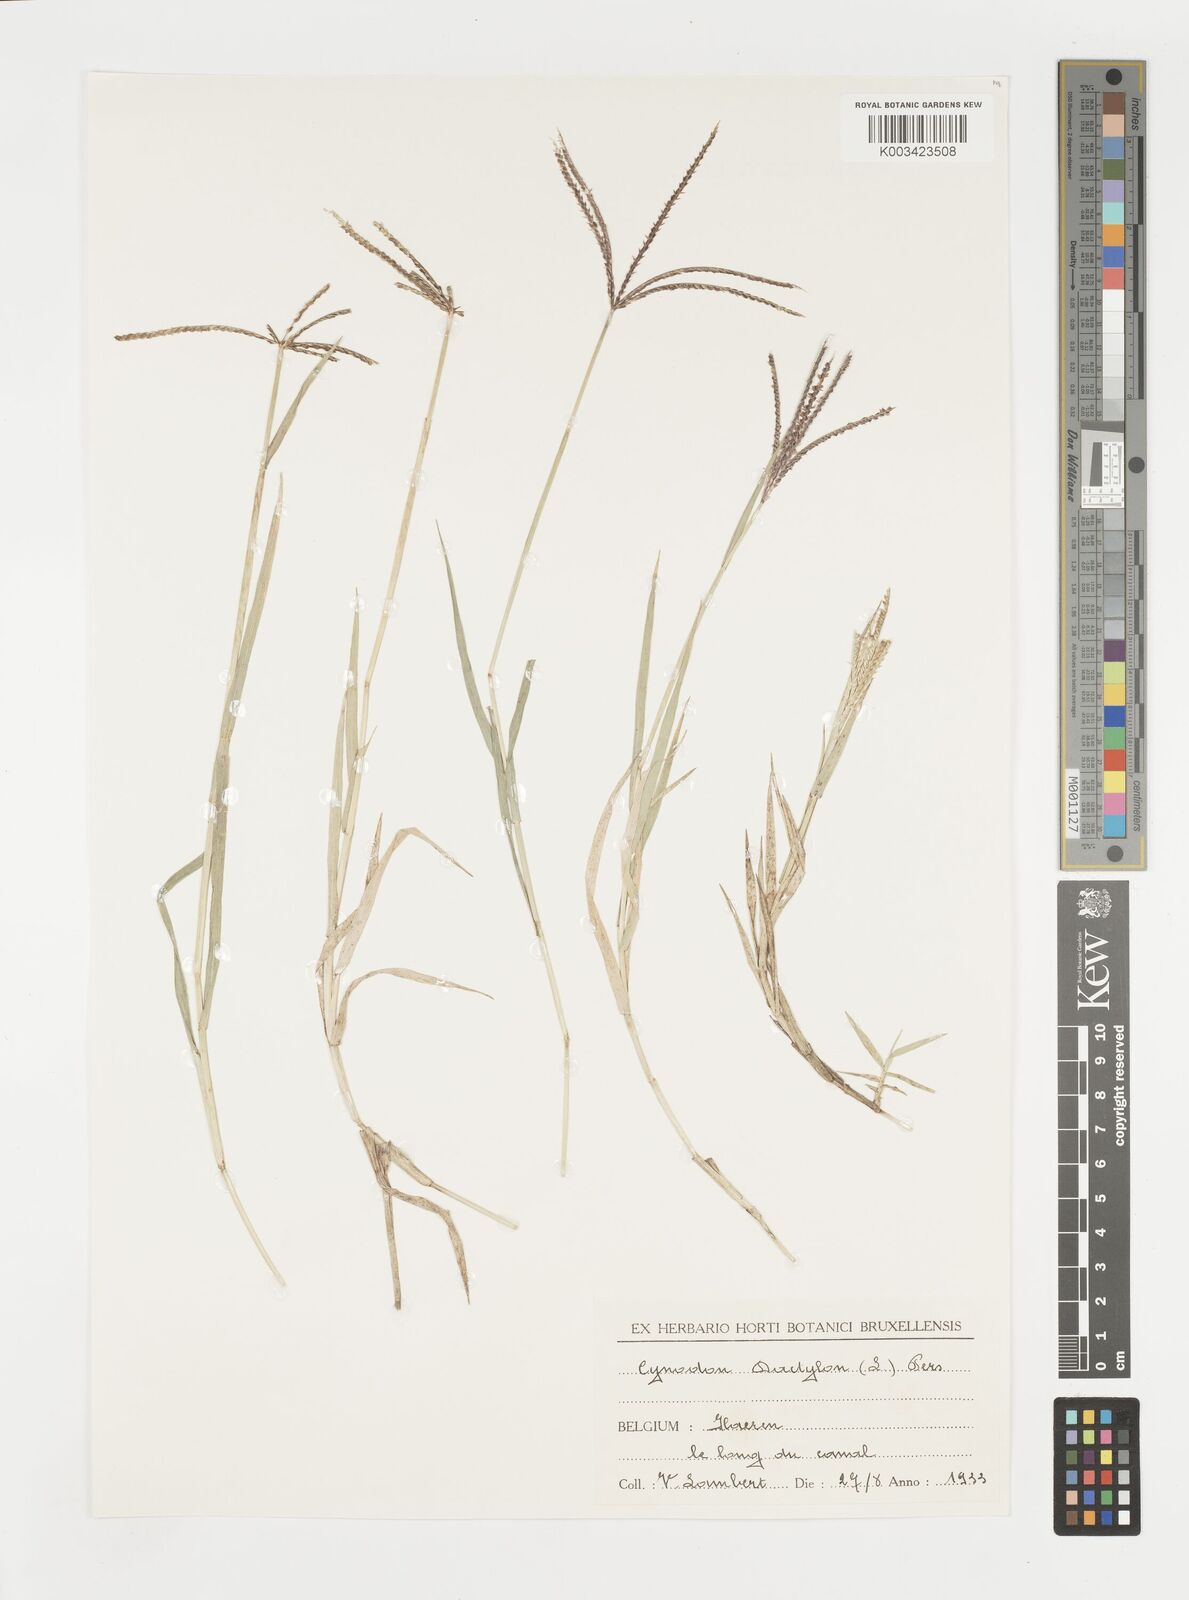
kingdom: Plantae
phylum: Tracheophyta
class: Liliopsida
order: Poales
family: Poaceae
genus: Cynodon
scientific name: Cynodon dactylon
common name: Bermuda grass
